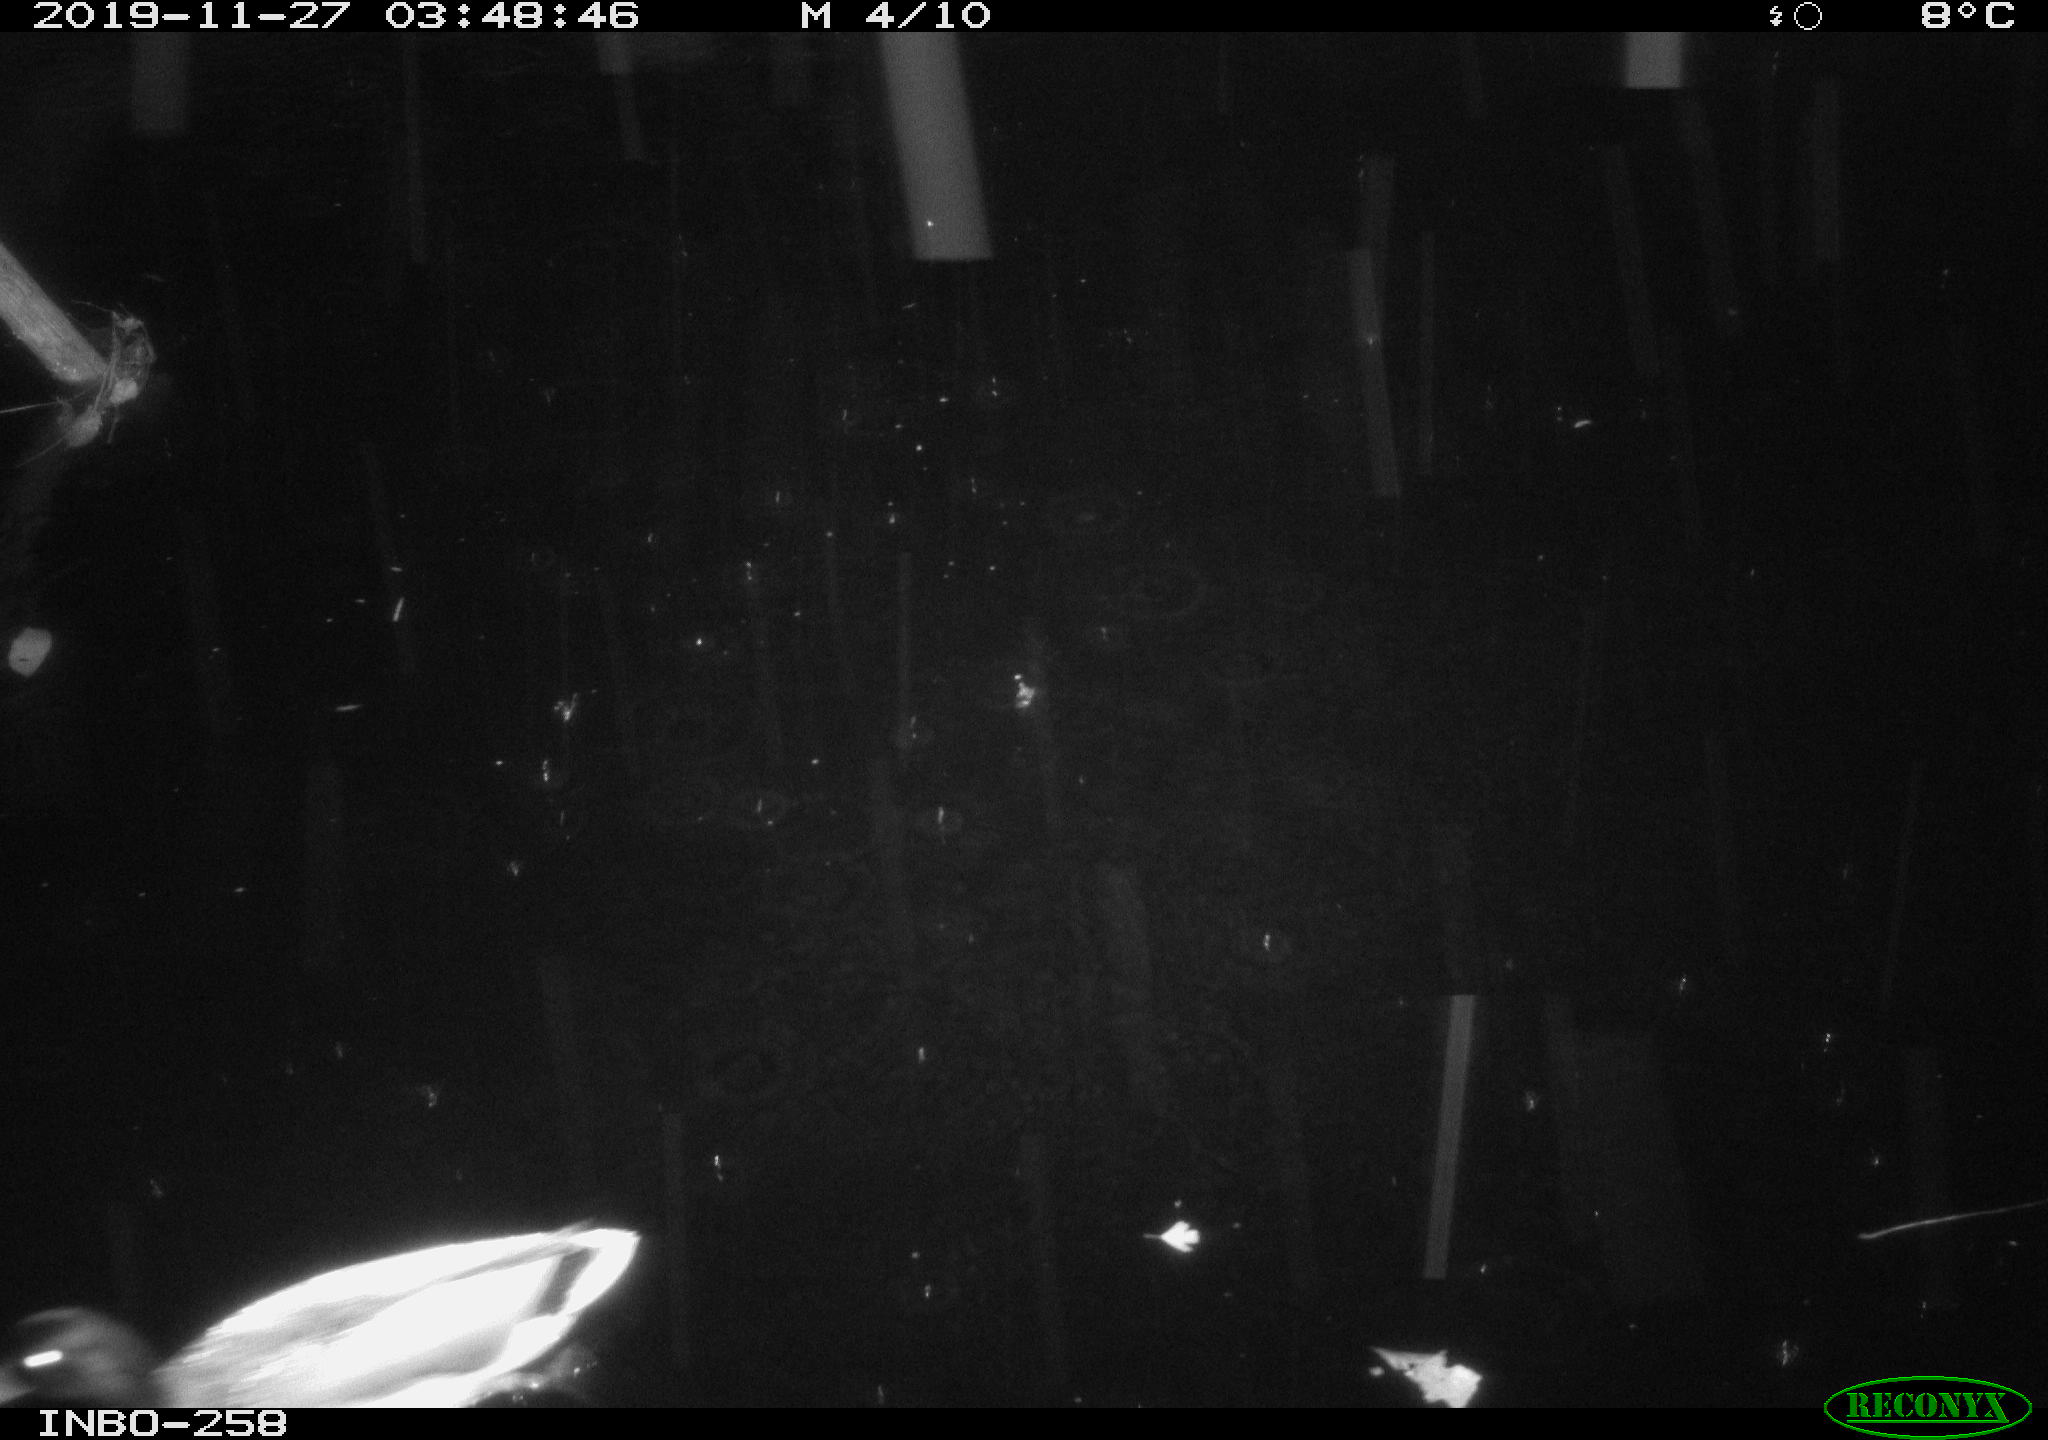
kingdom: Animalia
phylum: Chordata
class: Aves
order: Anseriformes
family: Anatidae
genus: Anas
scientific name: Anas platyrhynchos
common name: Mallard
